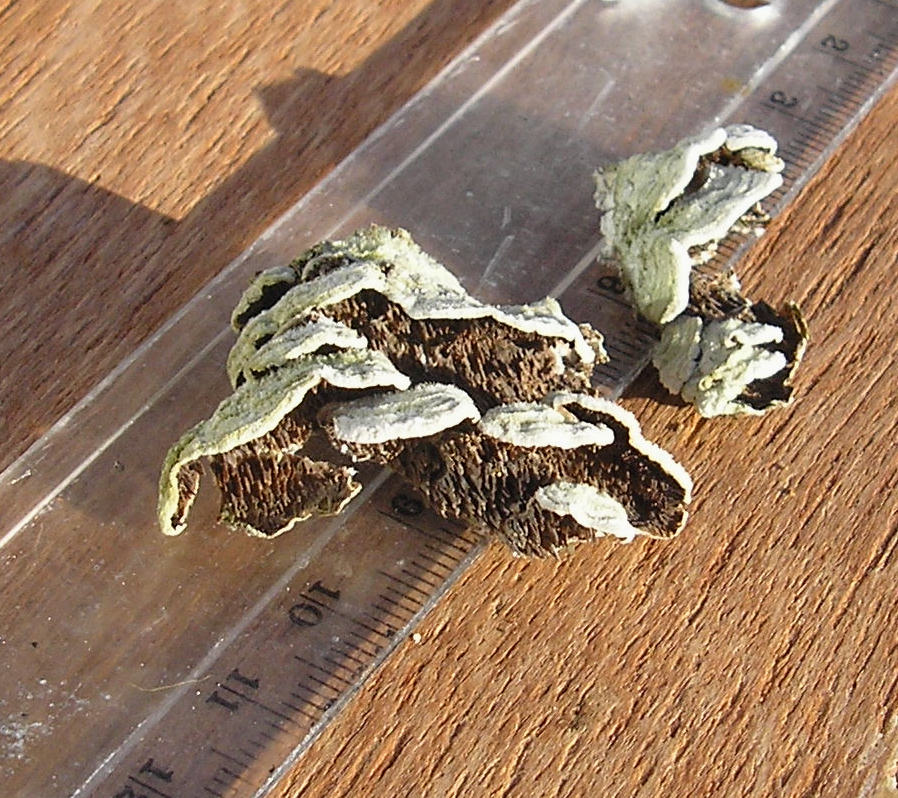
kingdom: Fungi
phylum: Basidiomycota
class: Agaricomycetes
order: Hymenochaetales
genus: Trichaptum
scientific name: Trichaptum fuscoviolaceum
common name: tandet violporesvamp
